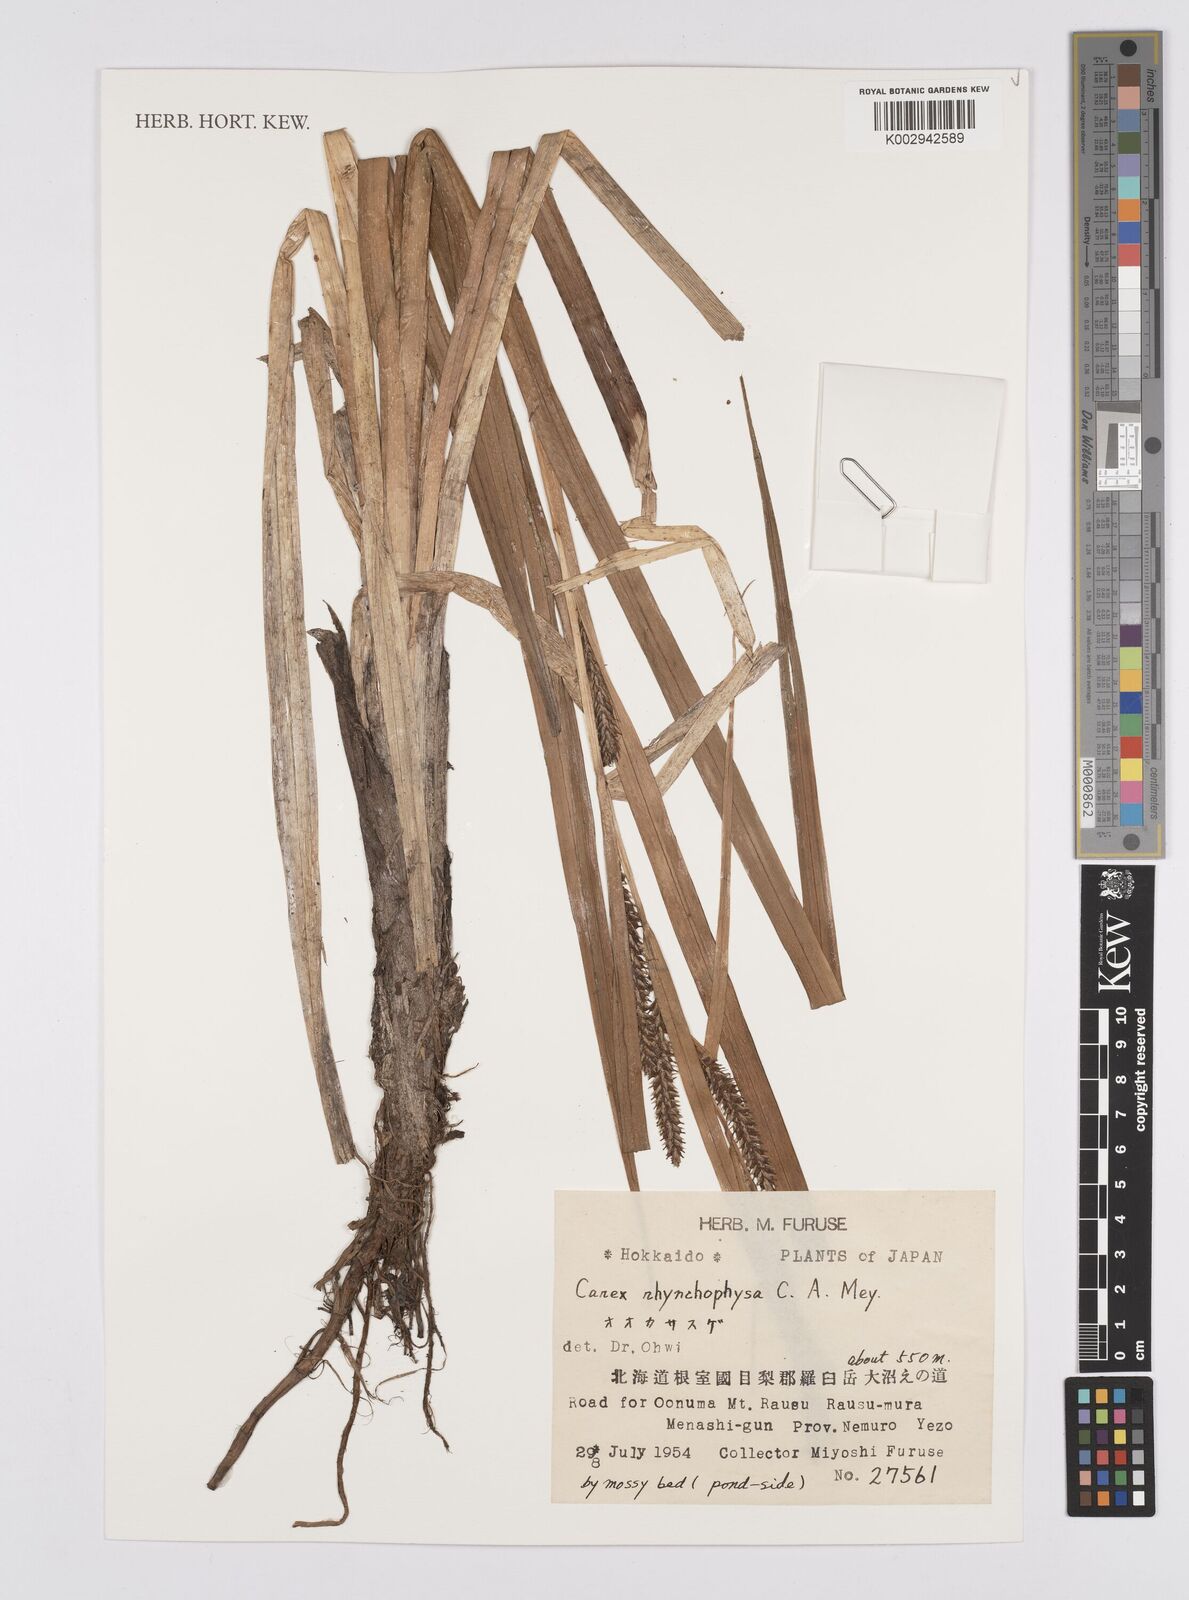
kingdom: Plantae
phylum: Tracheophyta
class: Liliopsida
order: Poales
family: Cyperaceae
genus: Carex
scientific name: Carex utriculata
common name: Beaked sedge
